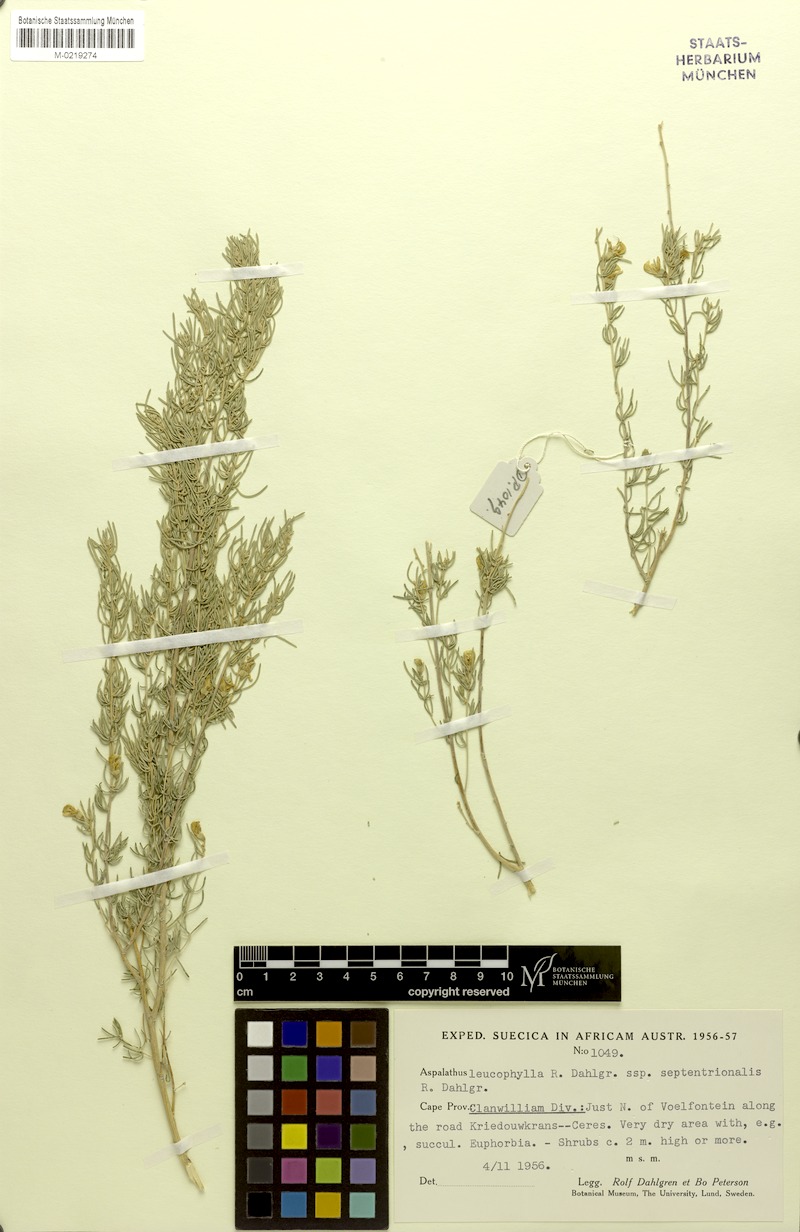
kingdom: Plantae
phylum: Tracheophyta
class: Magnoliopsida
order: Fabales
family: Fabaceae
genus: Aspalathus
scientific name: Aspalathus leucophylla
